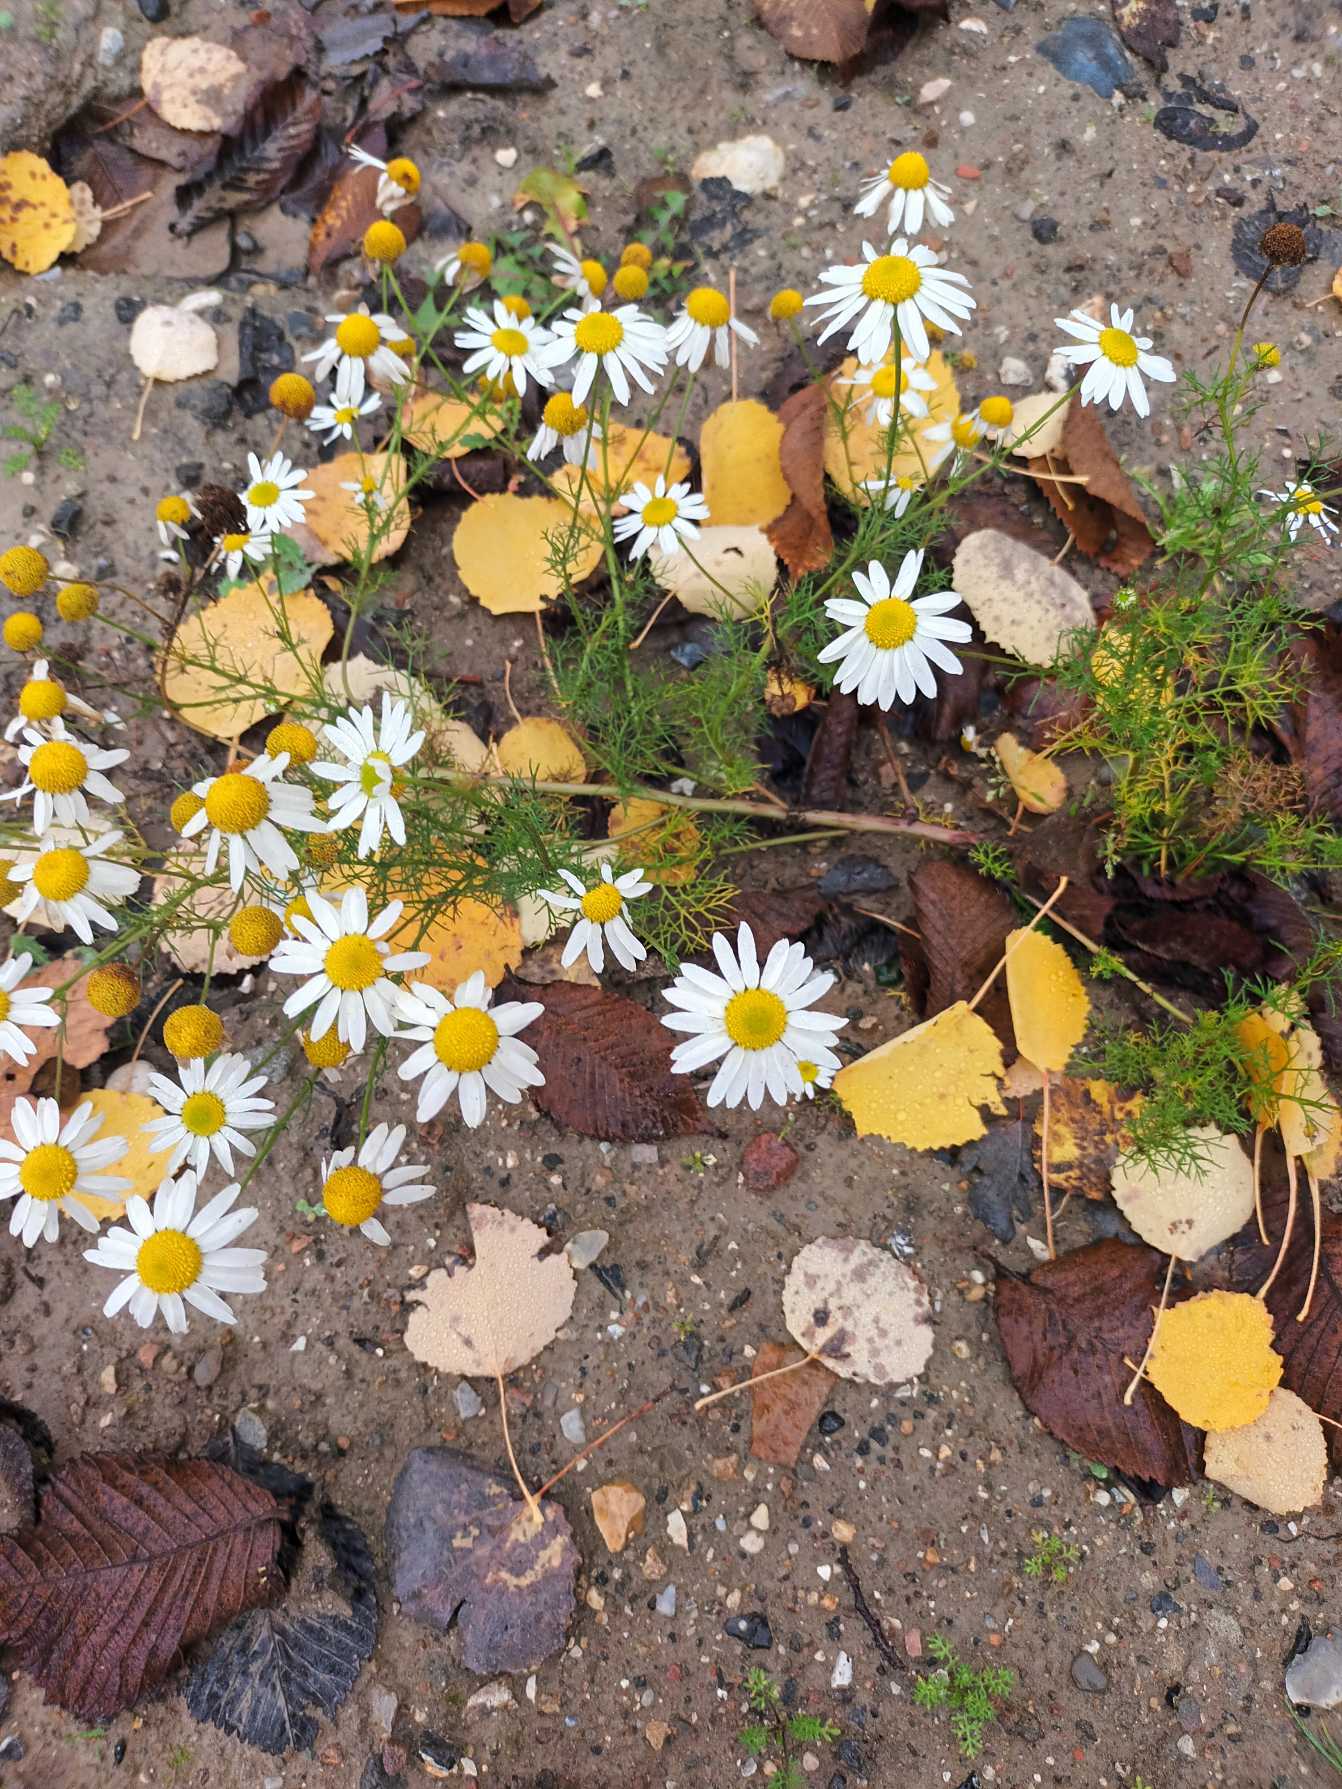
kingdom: Plantae
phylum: Tracheophyta
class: Magnoliopsida
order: Asterales
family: Asteraceae
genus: Tripleurospermum
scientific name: Tripleurospermum inodorum
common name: Lugtløs kamille
